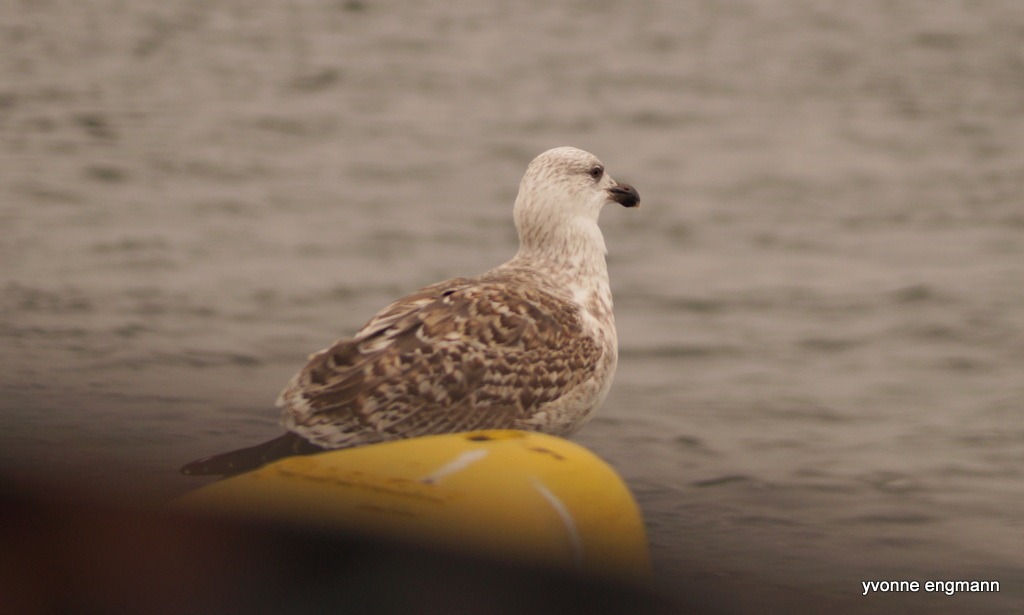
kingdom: Animalia
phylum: Chordata
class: Aves
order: Charadriiformes
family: Laridae
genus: Larus
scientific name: Larus marinus
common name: Svartbag
